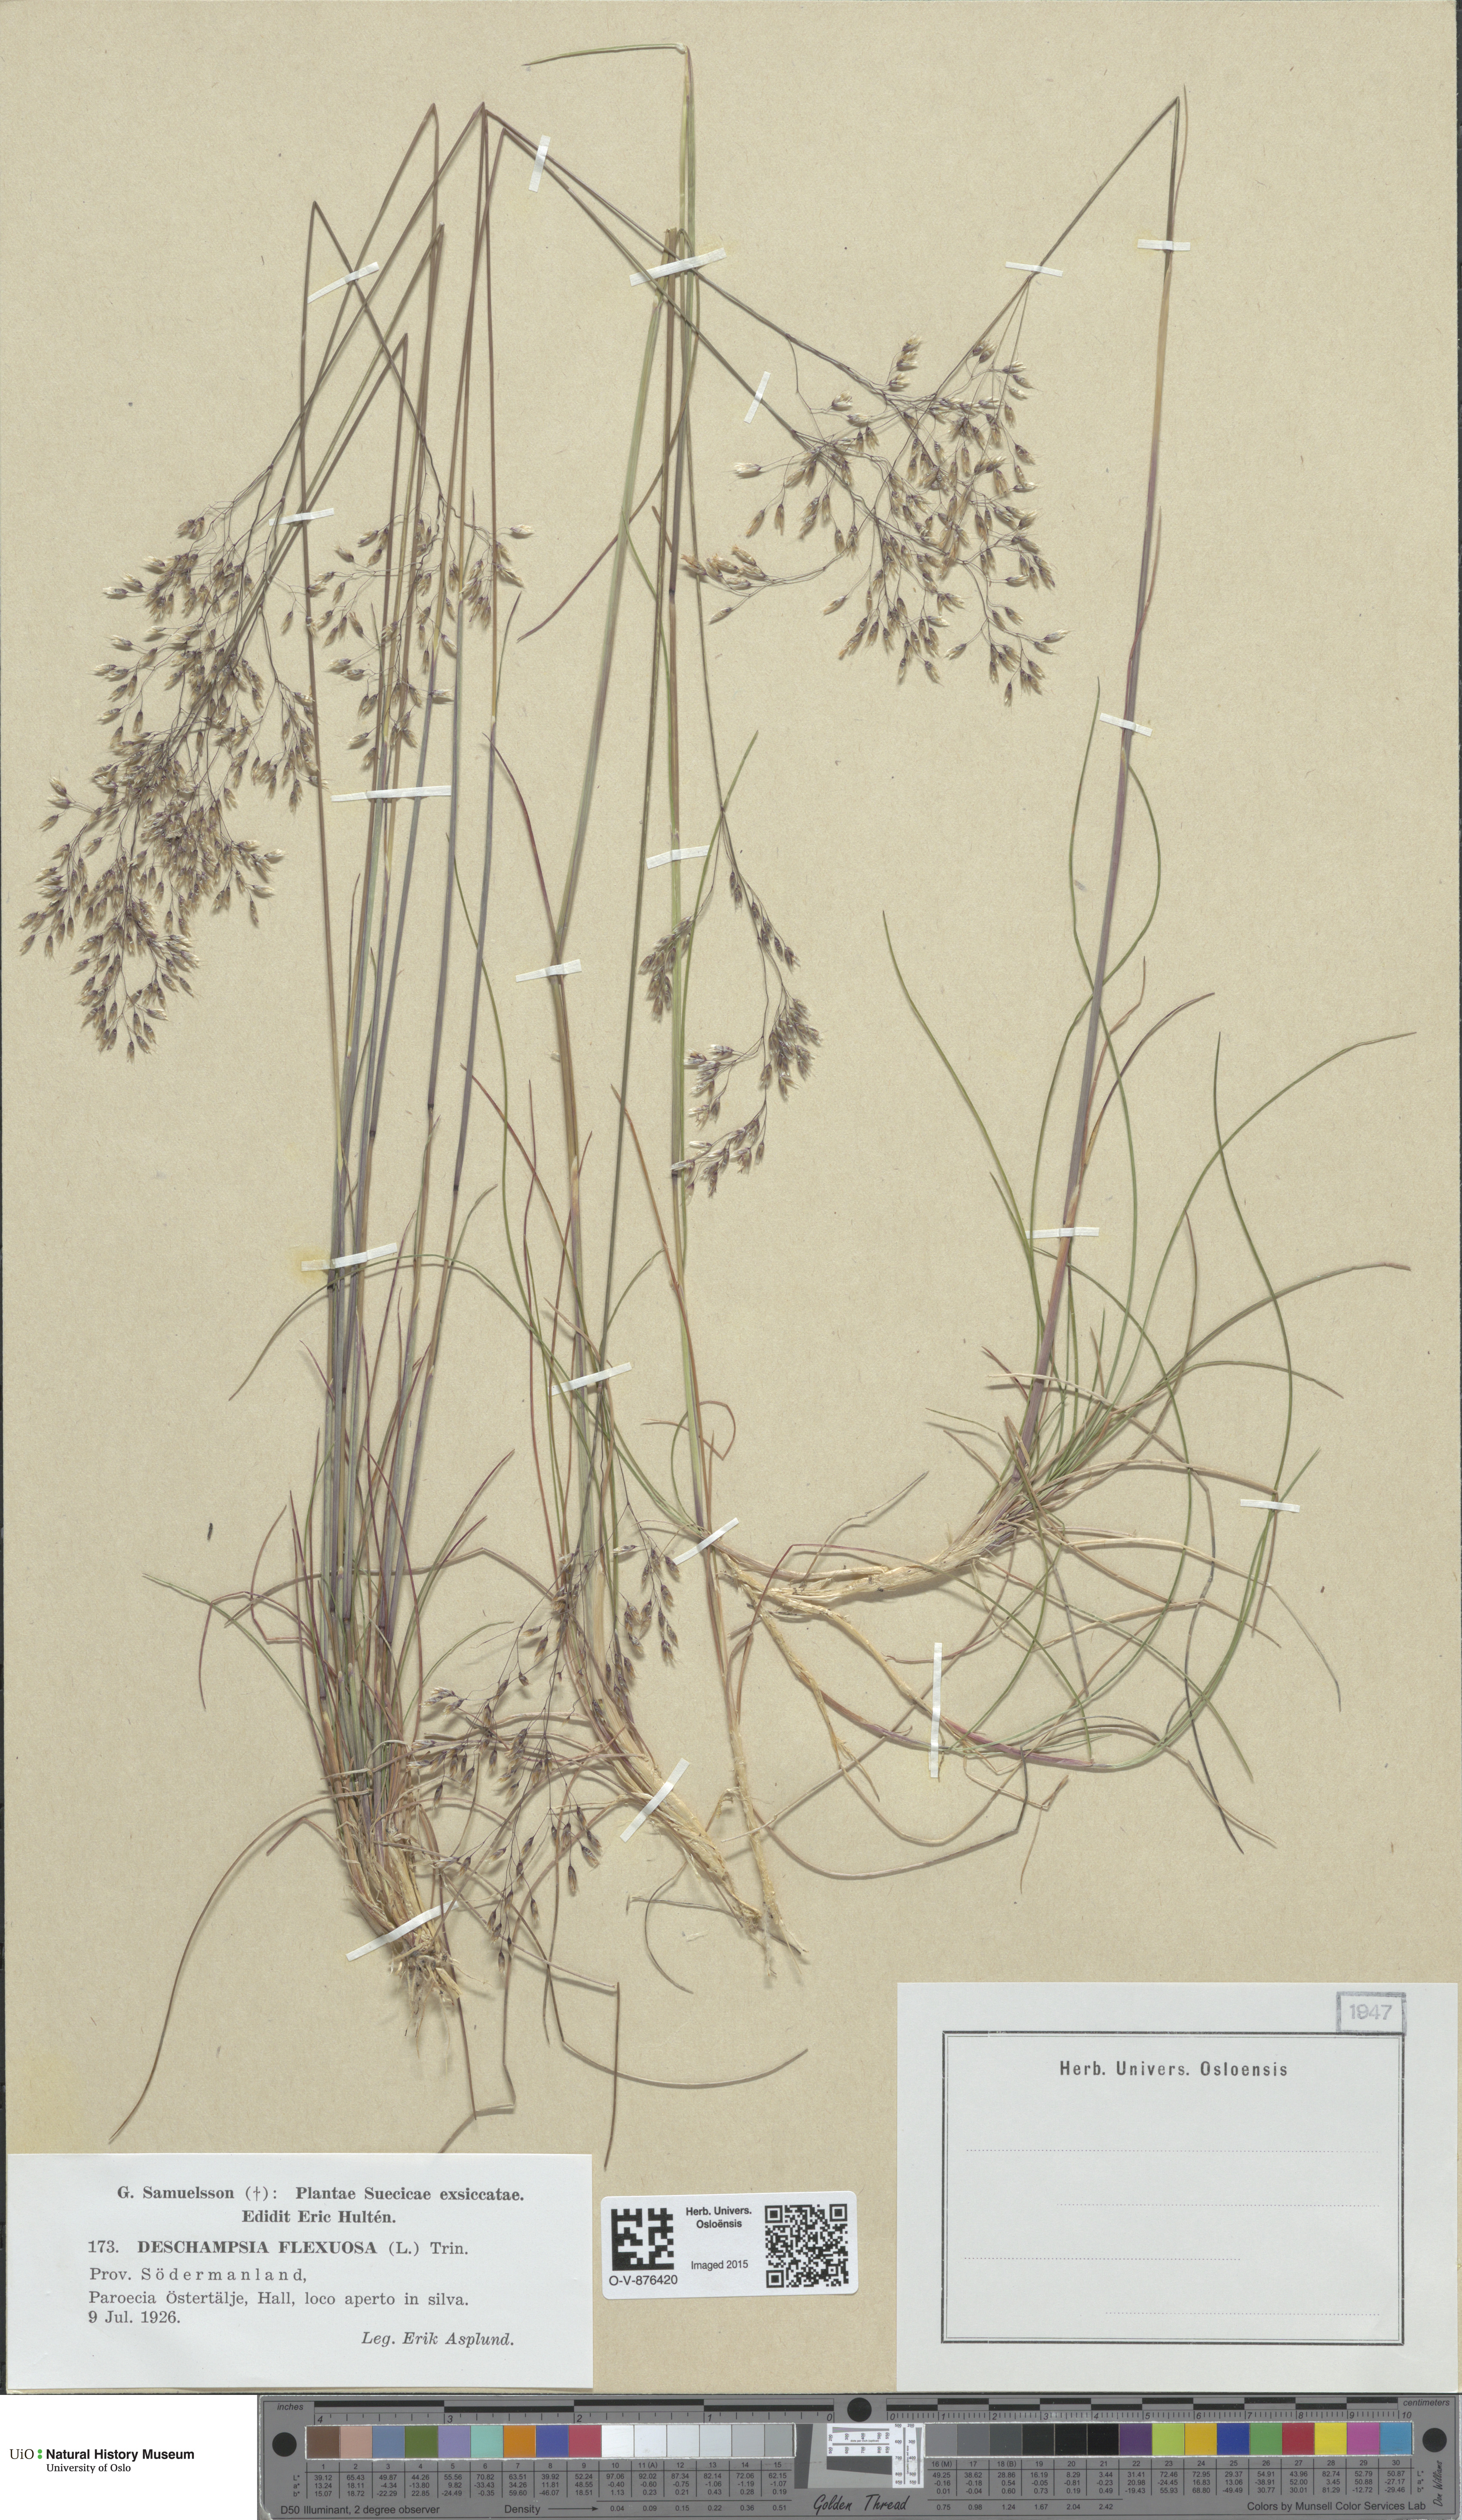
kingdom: Plantae
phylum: Tracheophyta
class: Liliopsida
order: Poales
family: Poaceae
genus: Avenella
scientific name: Avenella flexuosa
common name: Wavy hairgrass
